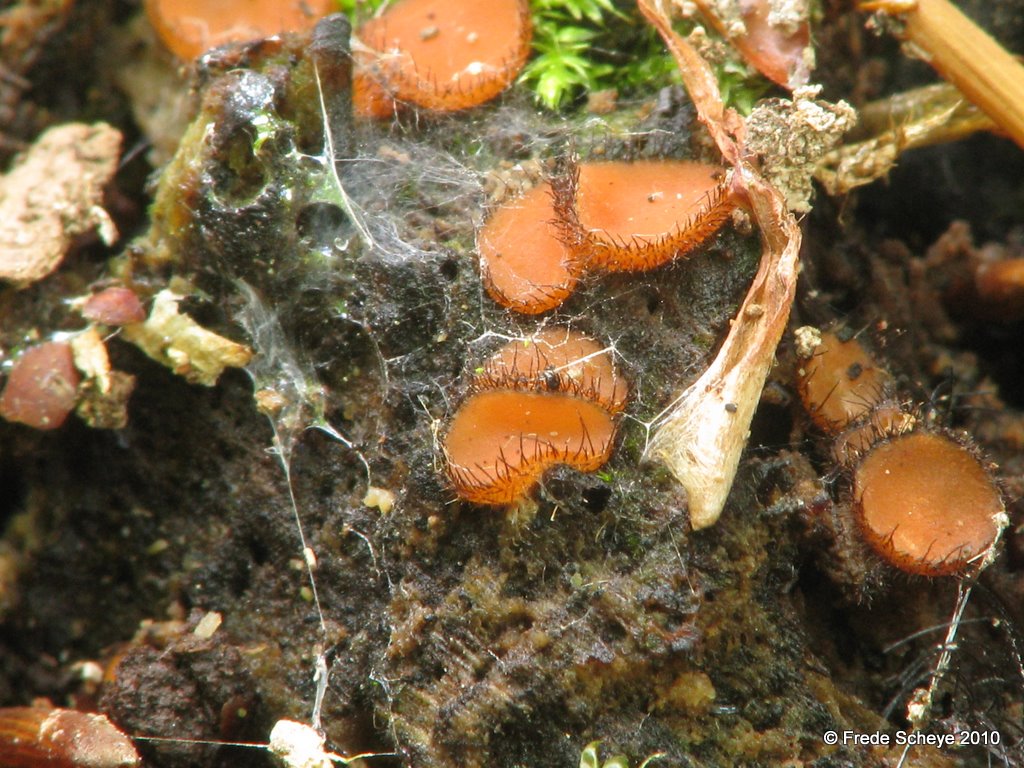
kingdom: Fungi
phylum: Ascomycota
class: Pezizomycetes
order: Pezizales
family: Pyronemataceae
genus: Scutellinia
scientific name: Scutellinia scutellata
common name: frynset skjoldbæger
